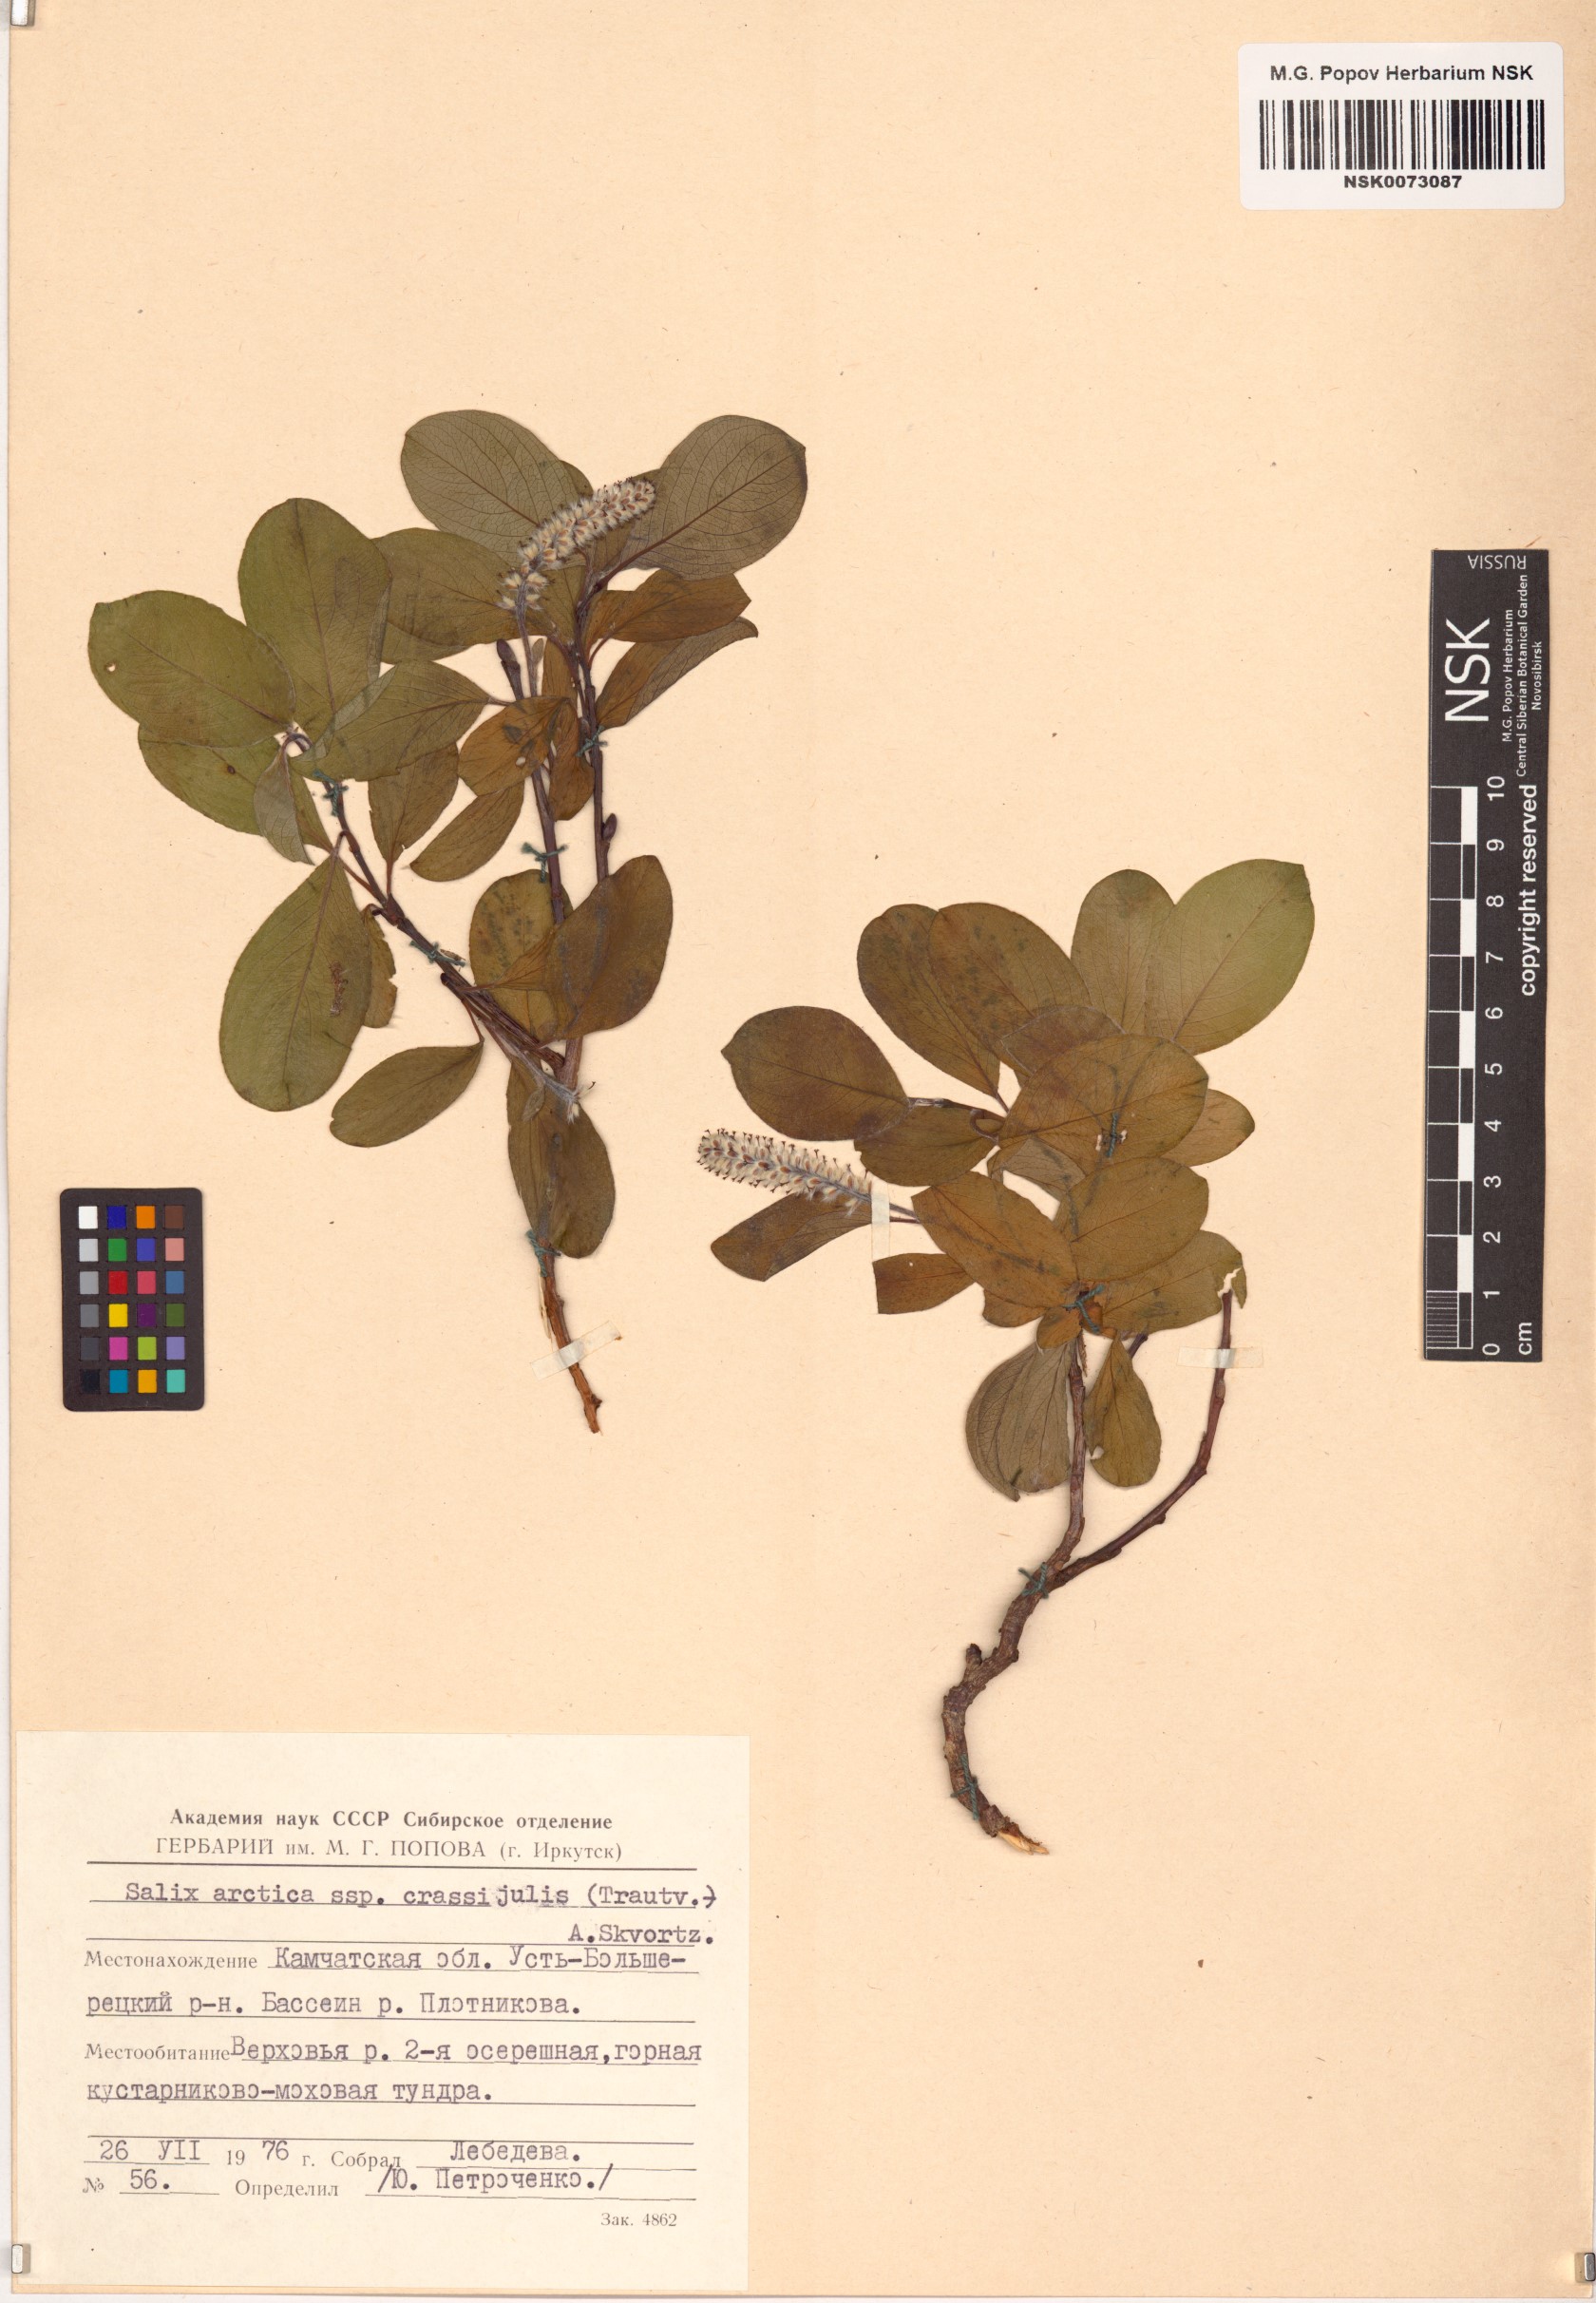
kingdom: Plantae
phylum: Tracheophyta
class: Magnoliopsida
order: Malpighiales
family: Salicaceae
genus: Salix
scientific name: Salix arctica
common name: Arctic willow
